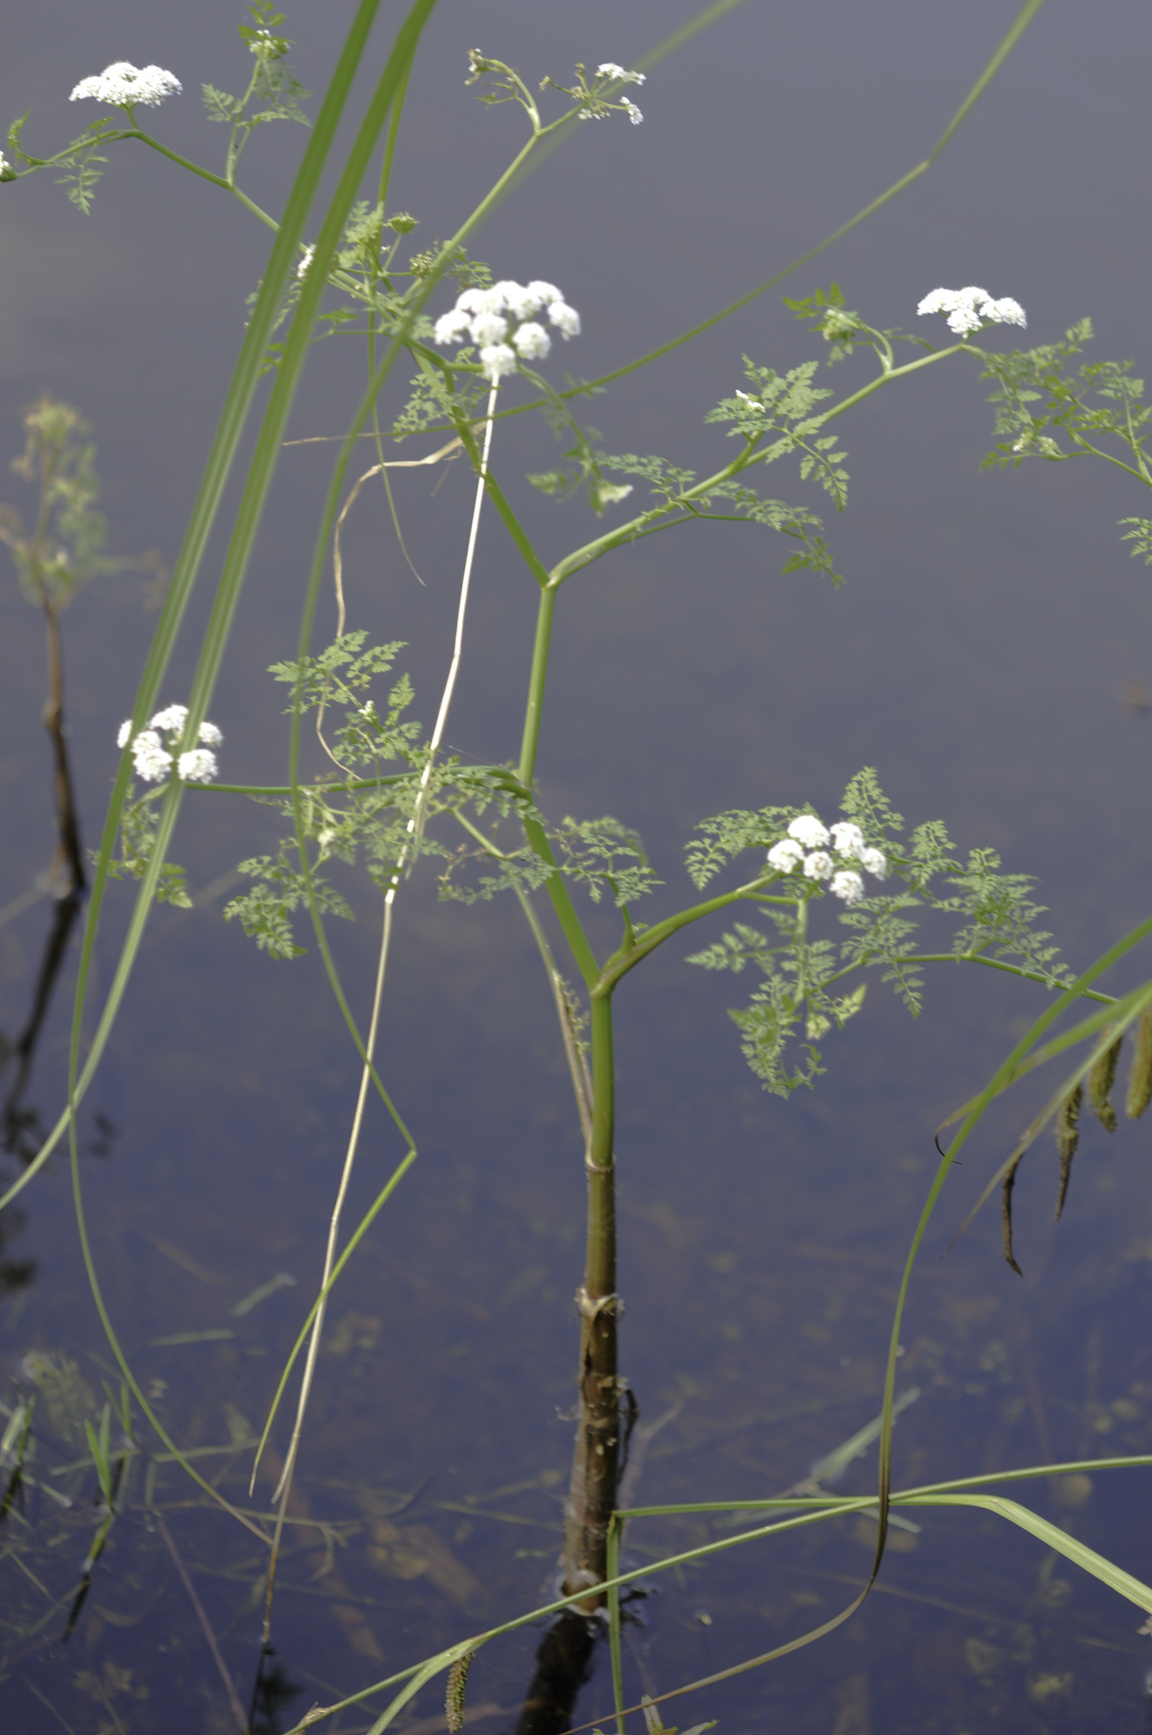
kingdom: Plantae
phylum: Tracheophyta
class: Magnoliopsida
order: Apiales
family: Apiaceae
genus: Oenanthe
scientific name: Oenanthe aquatica
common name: Fine-leaved water-dropwort
